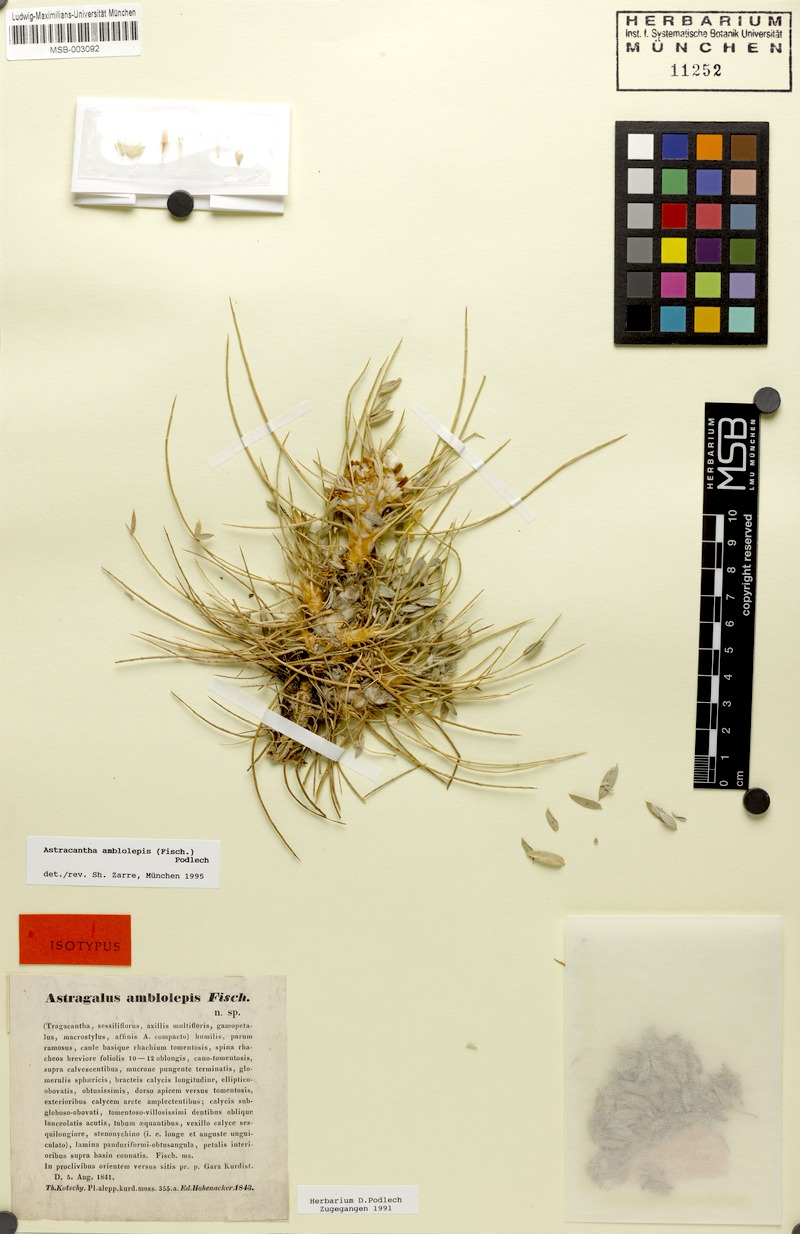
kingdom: Plantae
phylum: Tracheophyta
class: Magnoliopsida
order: Fabales
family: Fabaceae
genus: Astragalus
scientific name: Astragalus amblolepis
